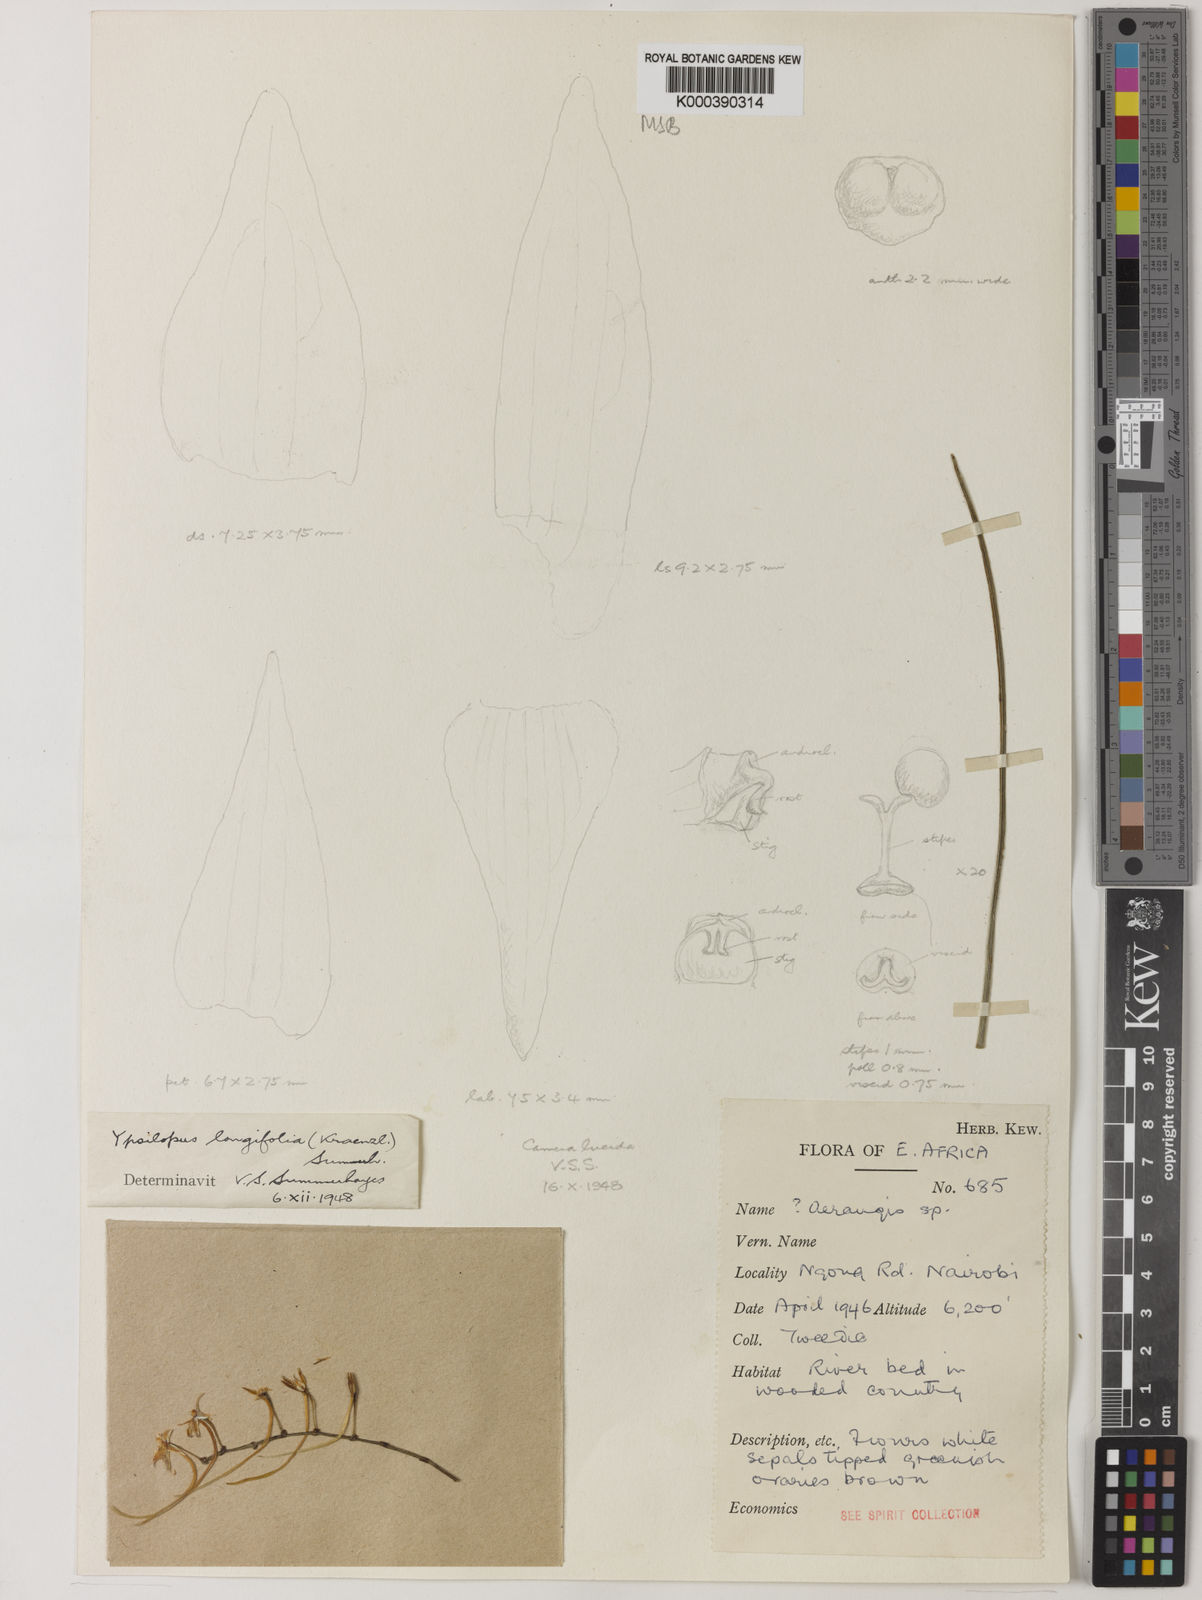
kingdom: Plantae
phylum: Tracheophyta
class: Liliopsida
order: Asparagales
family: Orchidaceae
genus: Ypsilopus
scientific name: Ypsilopus longifolius
